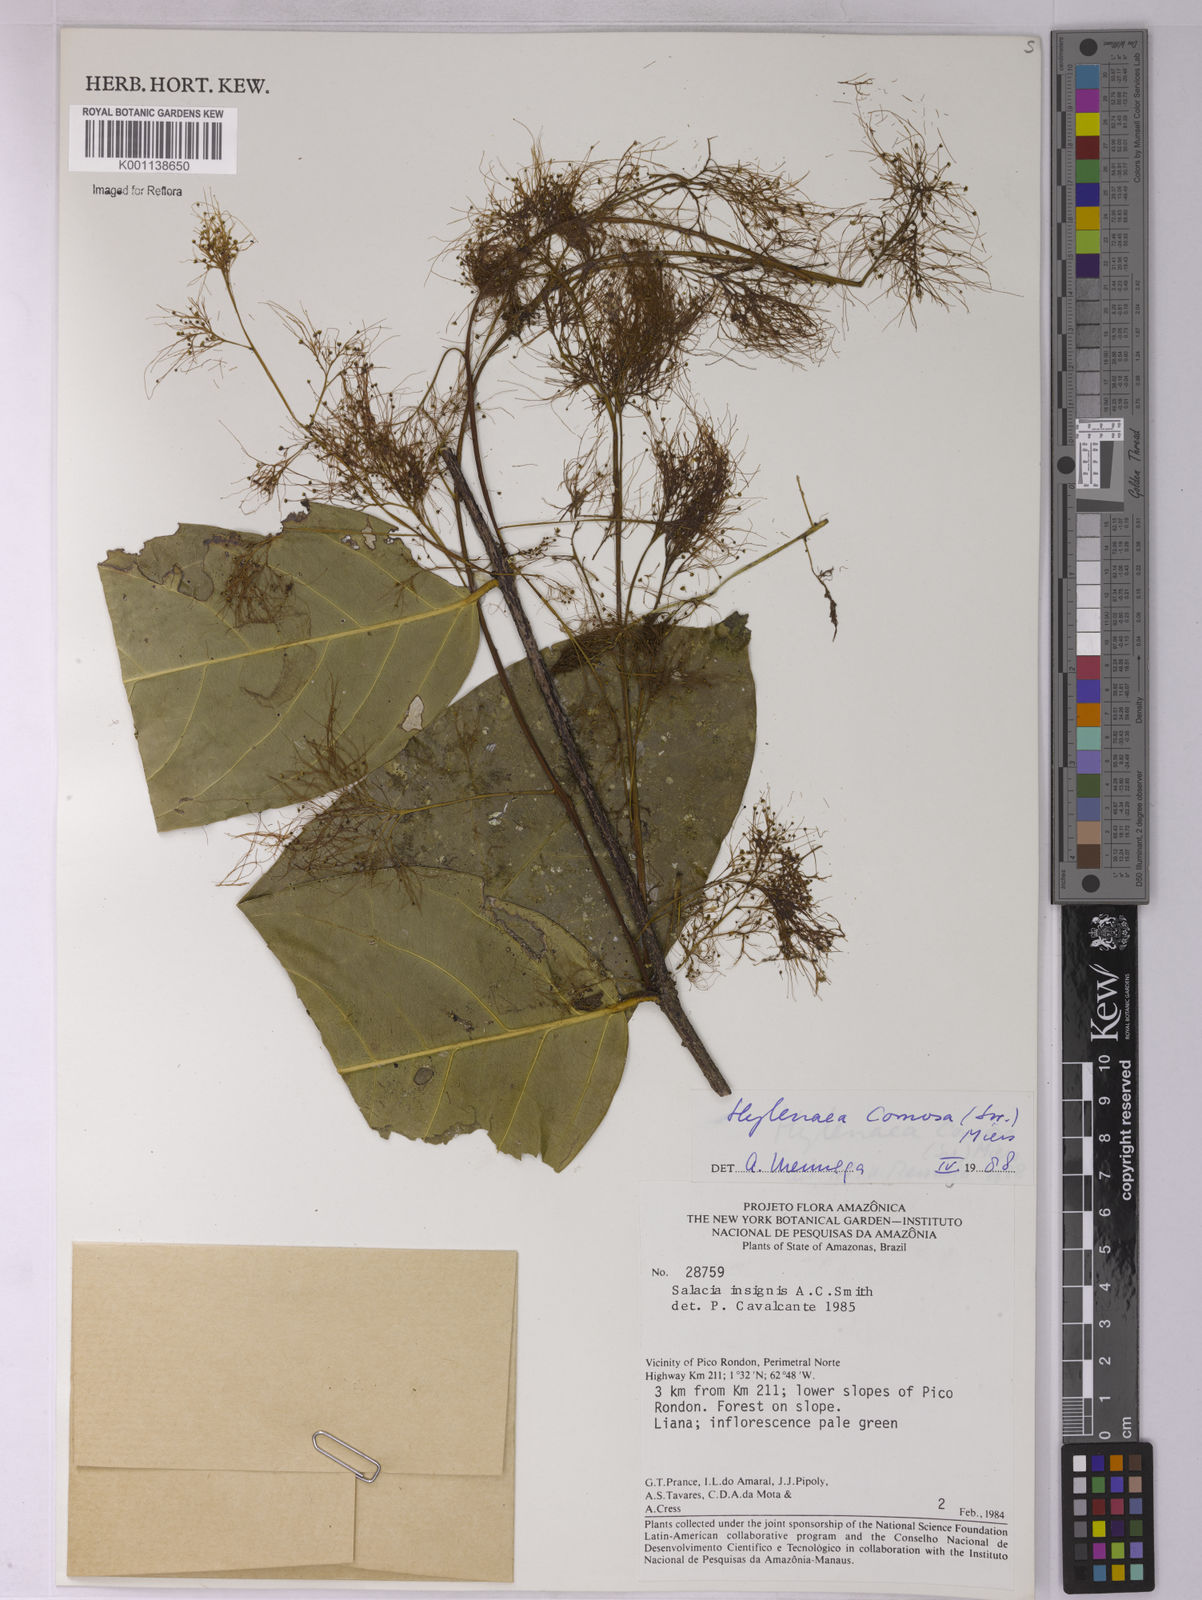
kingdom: Plantae
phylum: Tracheophyta
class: Magnoliopsida
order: Celastrales
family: Celastraceae
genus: Hylenaea
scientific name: Hylenaea comosa
